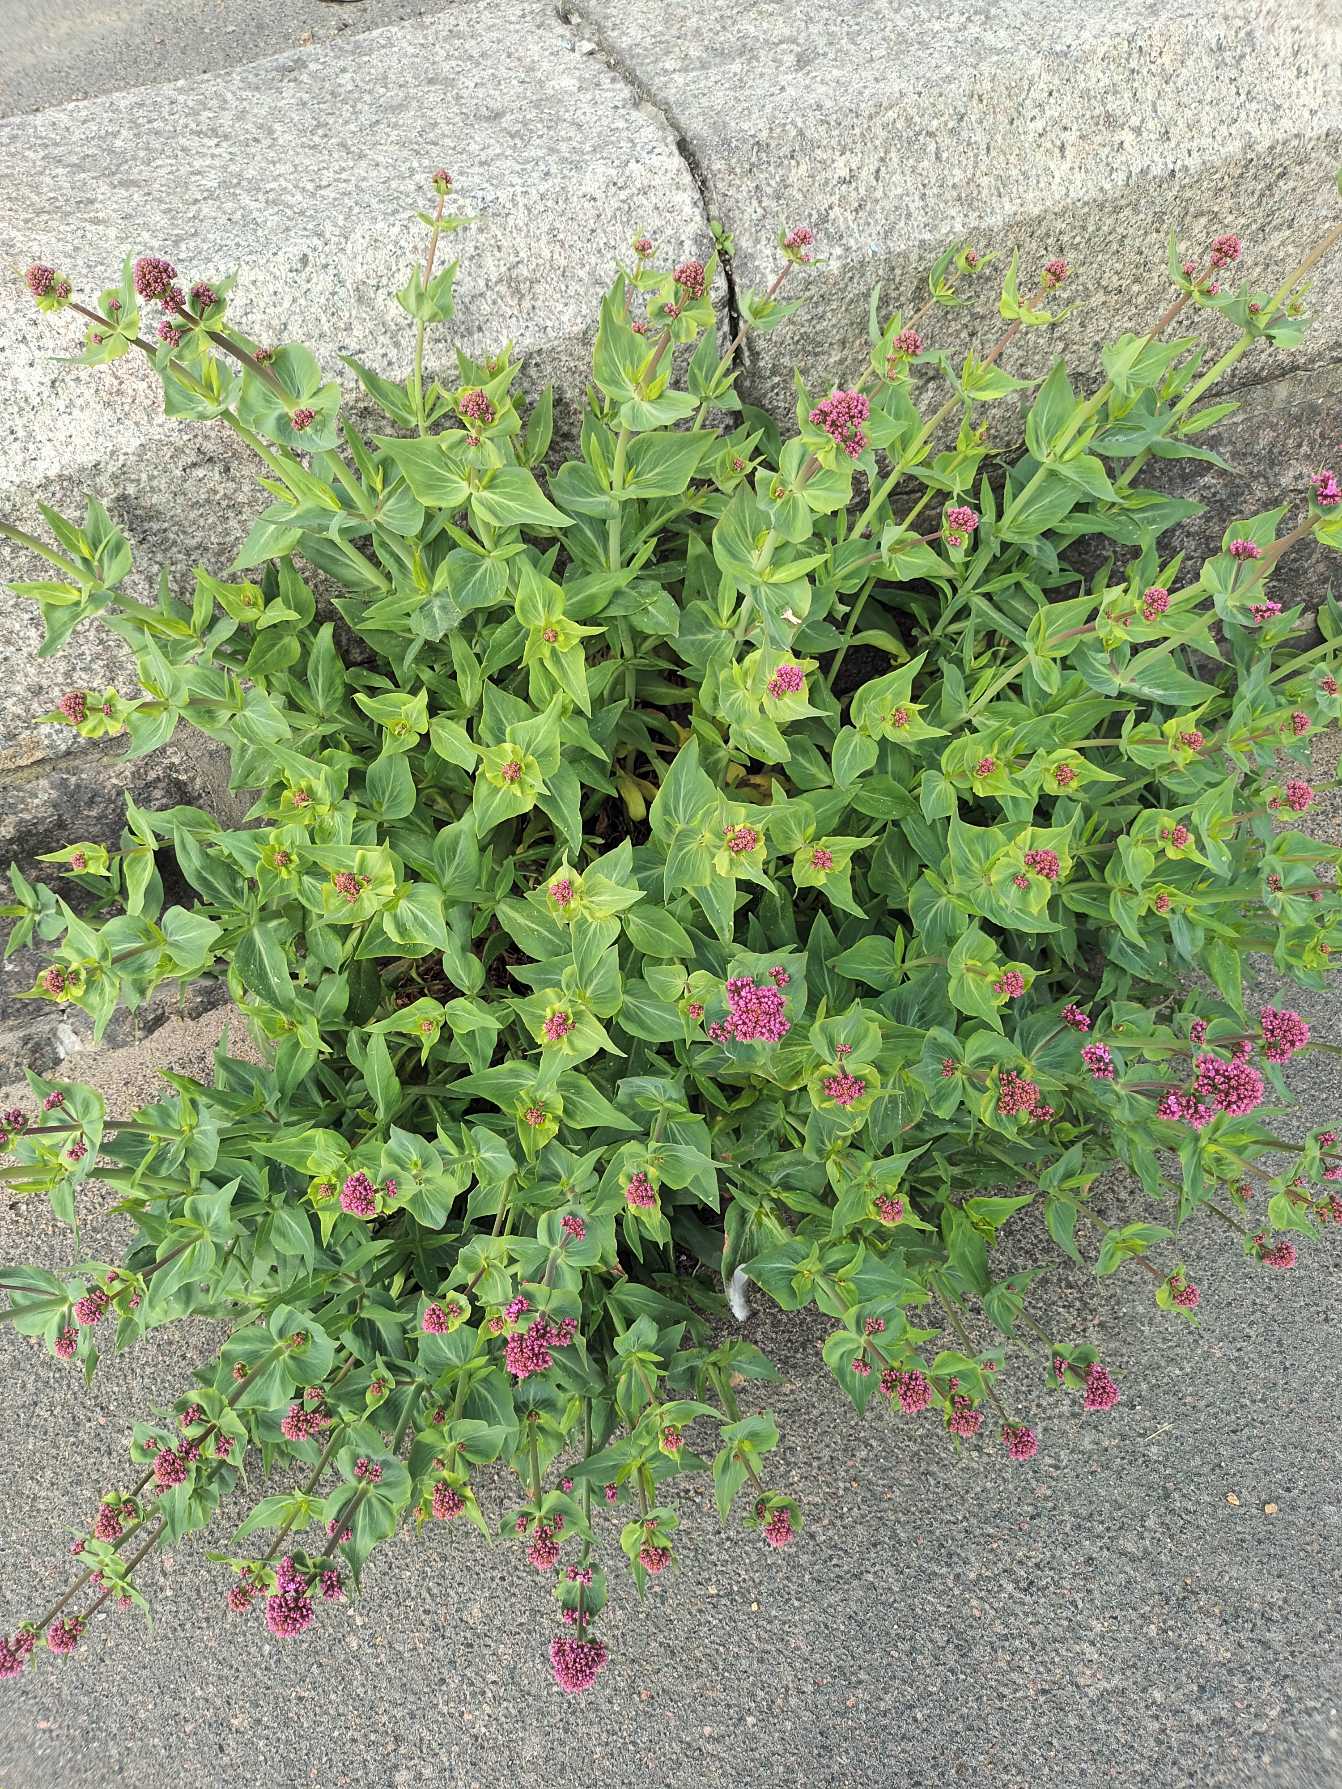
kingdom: Plantae
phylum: Tracheophyta
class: Magnoliopsida
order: Dipsacales
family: Caprifoliaceae
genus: Centranthus
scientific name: Centranthus ruber
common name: Sporebaldrian
